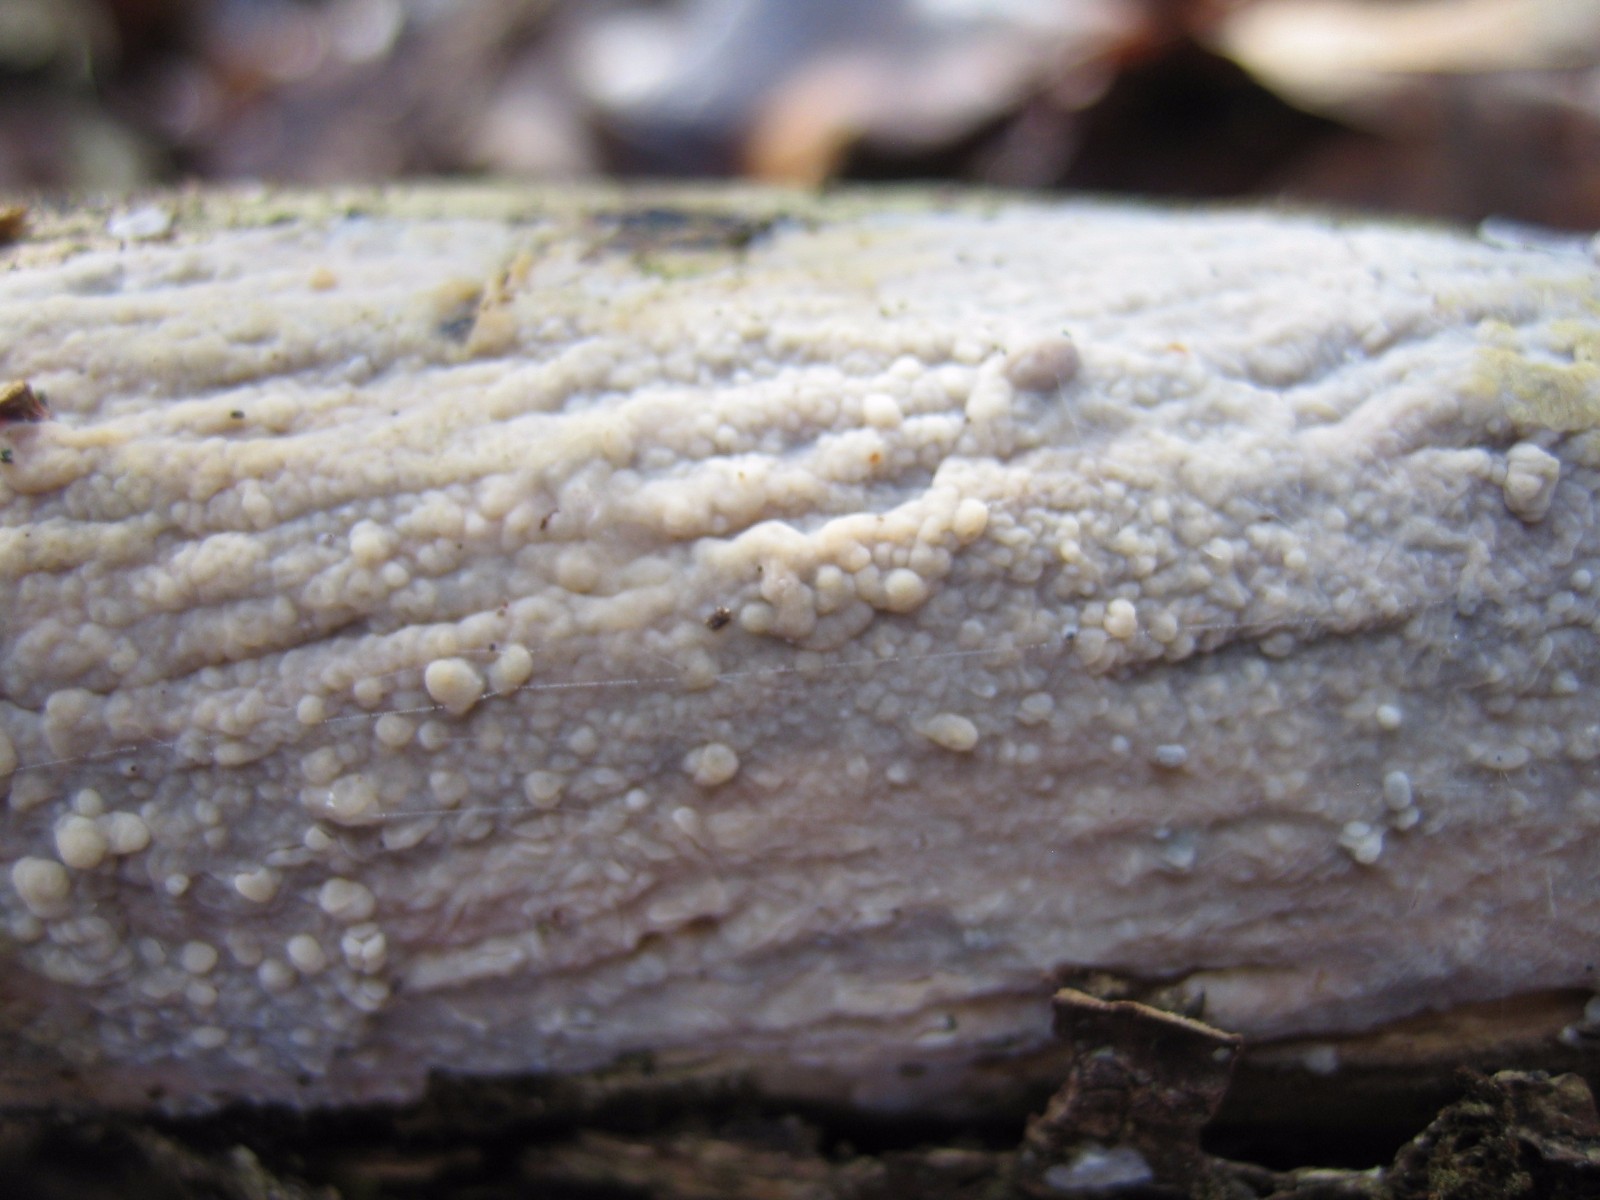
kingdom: Fungi
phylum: Basidiomycota
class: Agaricomycetes
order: Agaricales
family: Radulomycetaceae
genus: Radulomyces
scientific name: Radulomyces confluens
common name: glat naftalinskind
